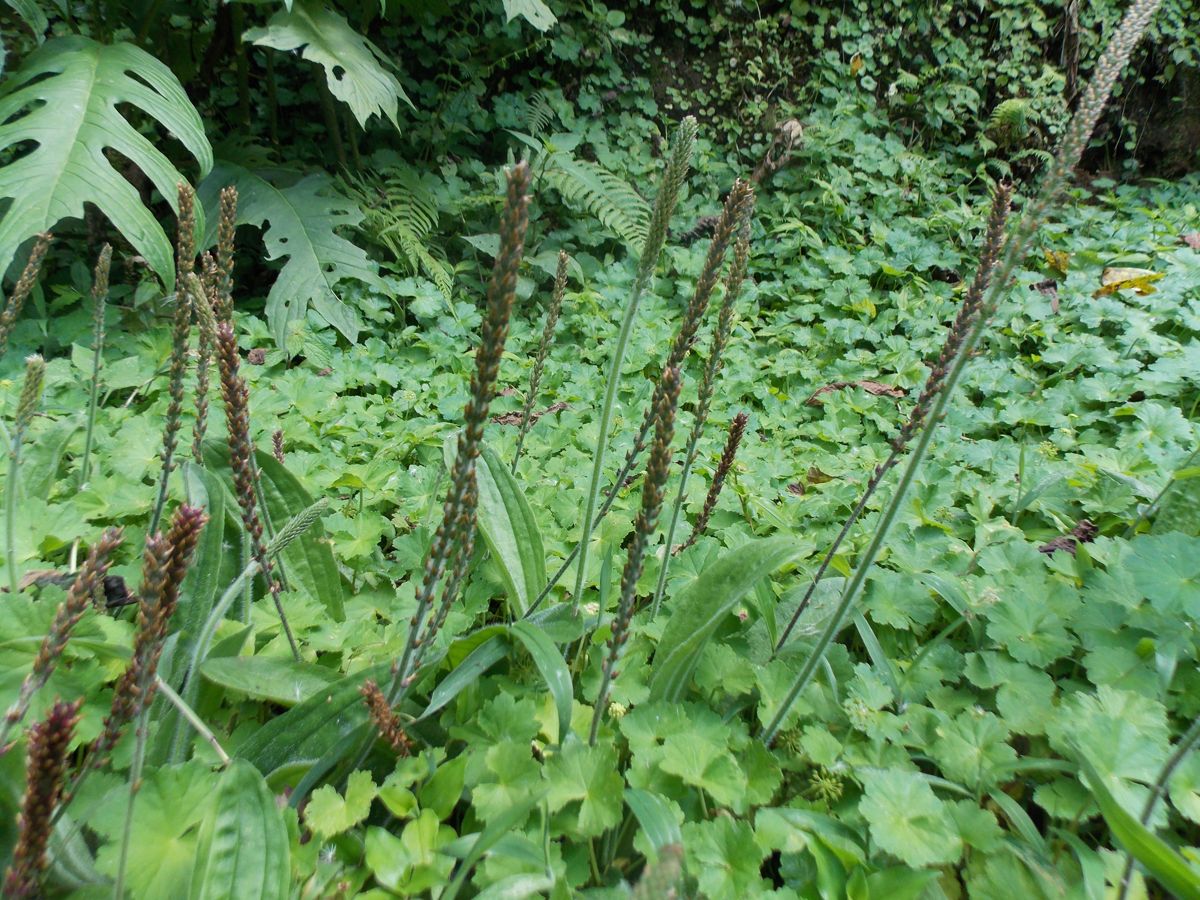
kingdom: Plantae
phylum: Tracheophyta
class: Magnoliopsida
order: Lamiales
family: Plantaginaceae
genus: Plantago
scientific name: Plantago australis
